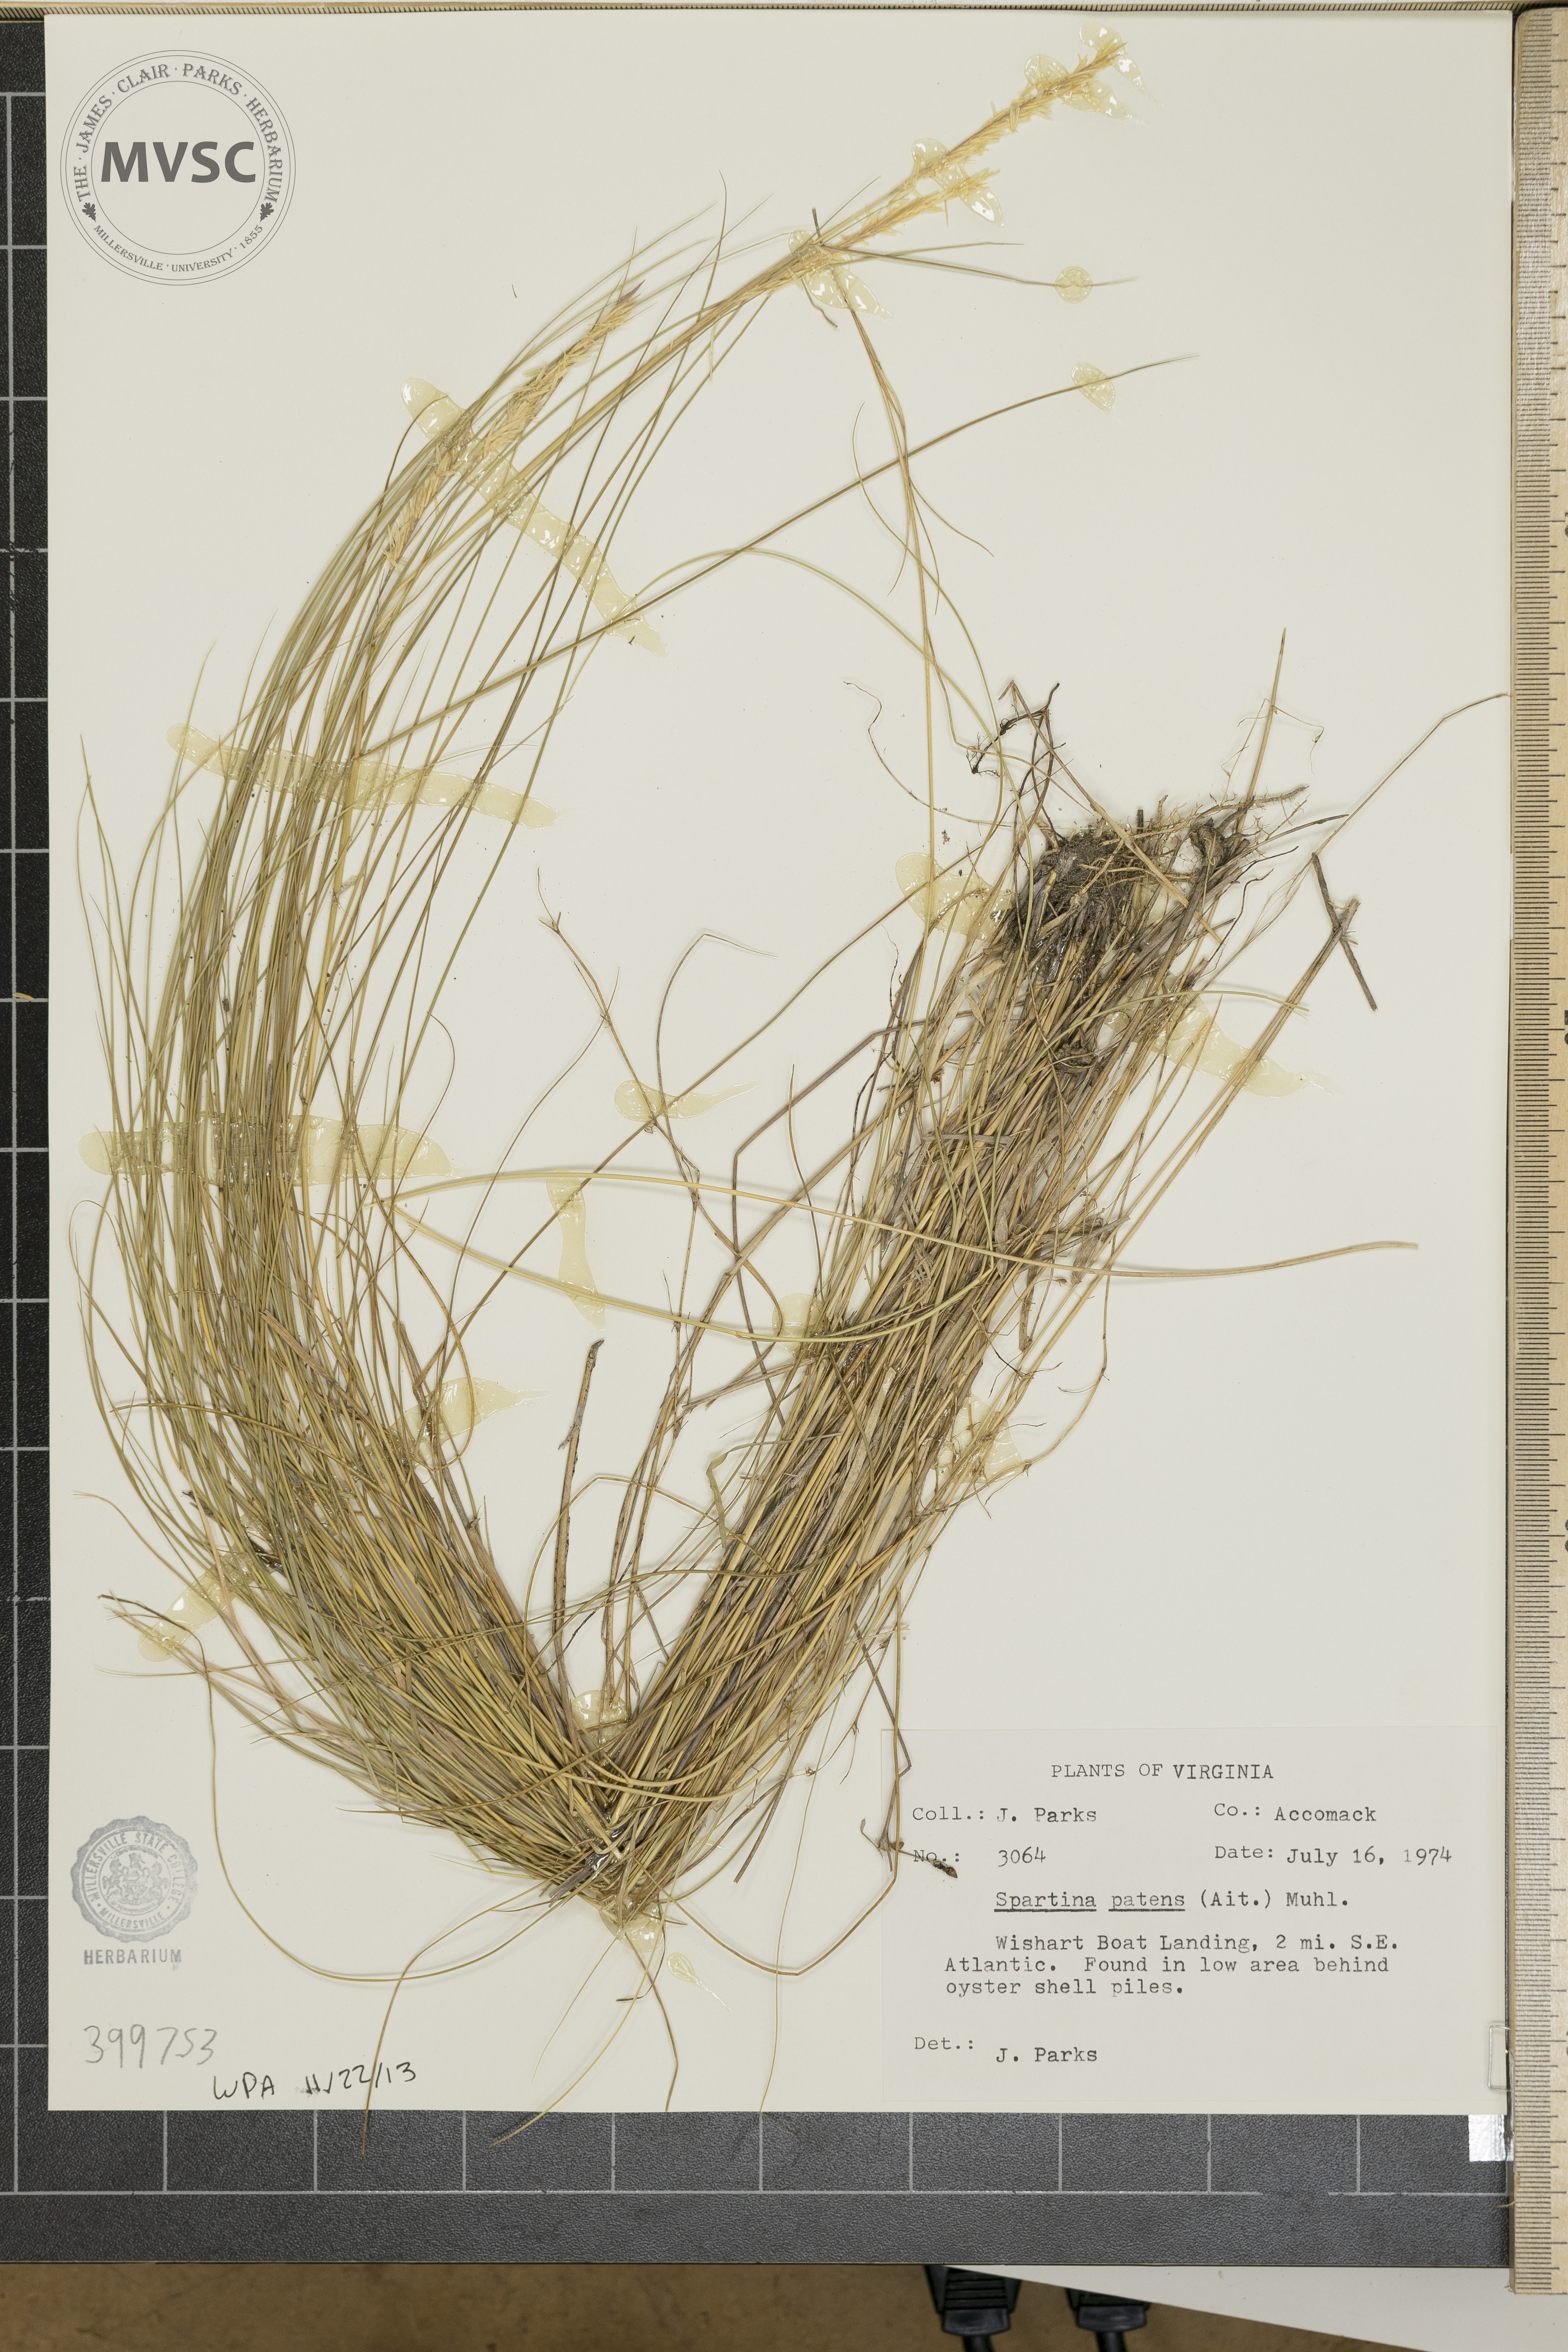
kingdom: Plantae
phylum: Tracheophyta
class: Liliopsida
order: Poales
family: Poaceae
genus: Sporobolus
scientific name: Sporobolus pumilus
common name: cordgrass
